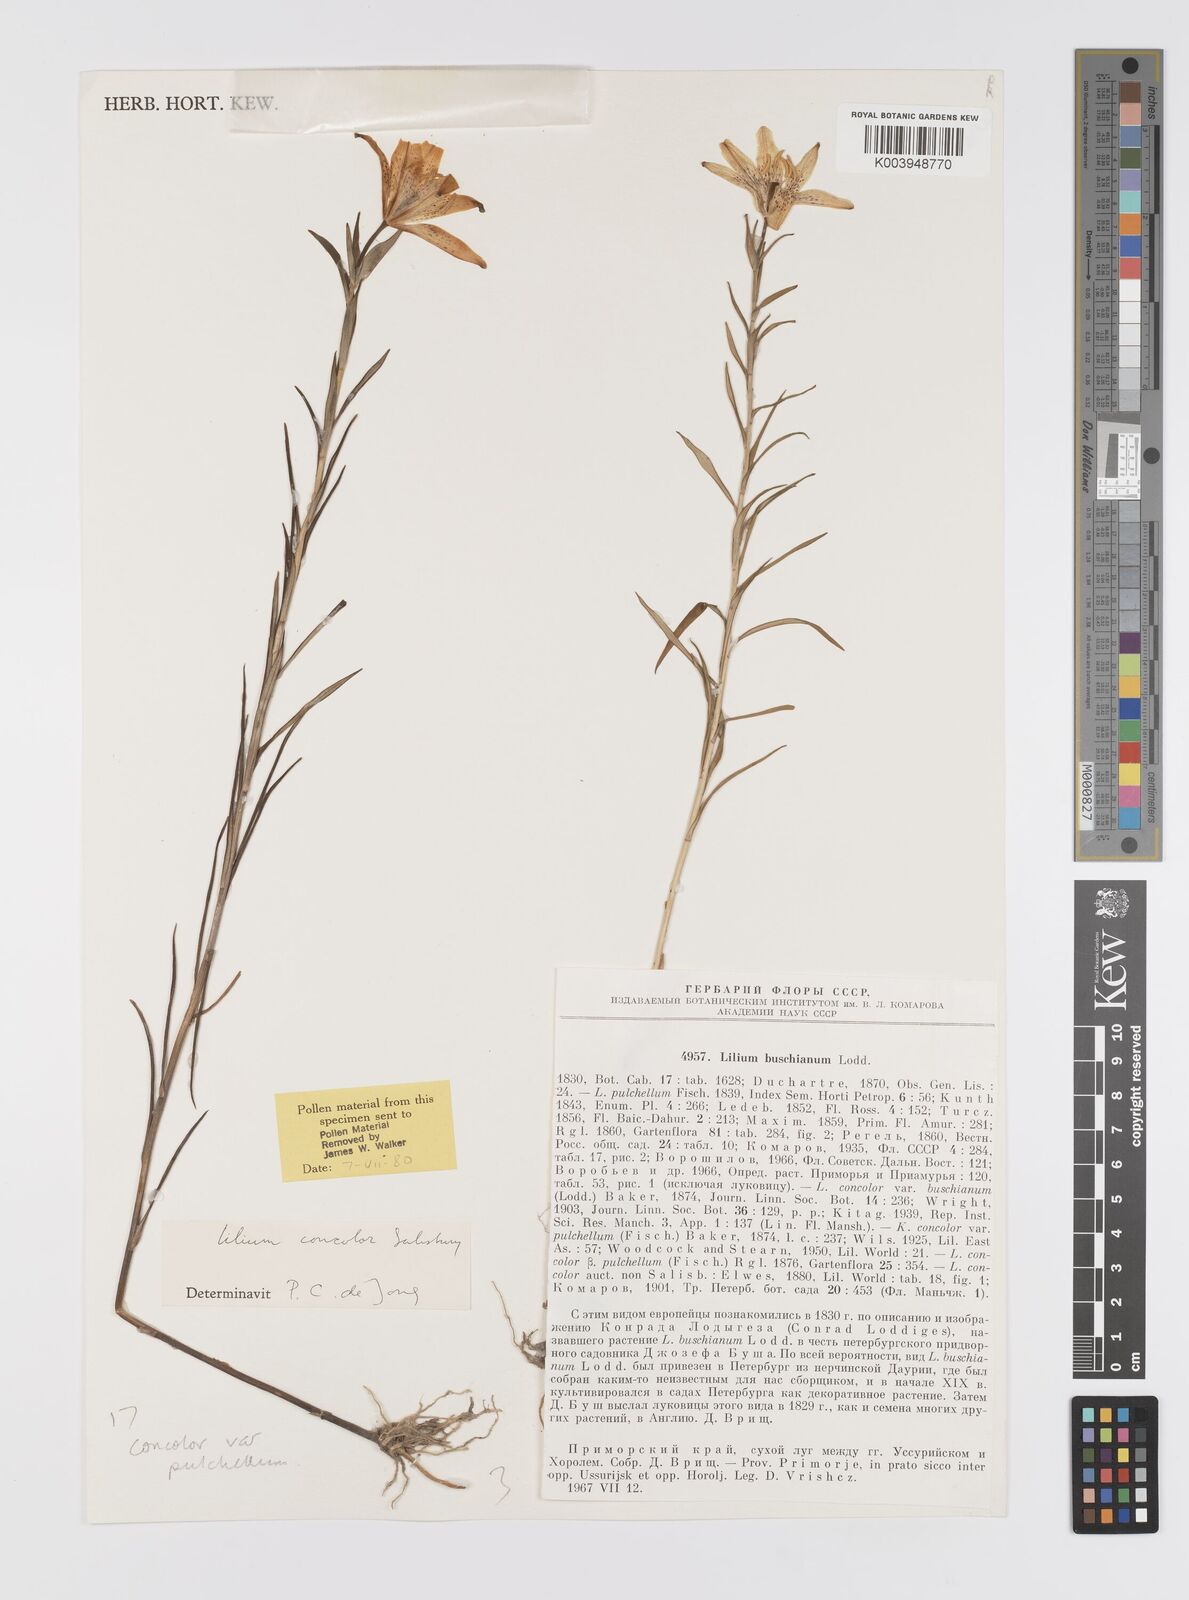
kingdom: Plantae
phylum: Tracheophyta
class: Liliopsida
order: Liliales
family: Liliaceae
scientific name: Liliaceae
